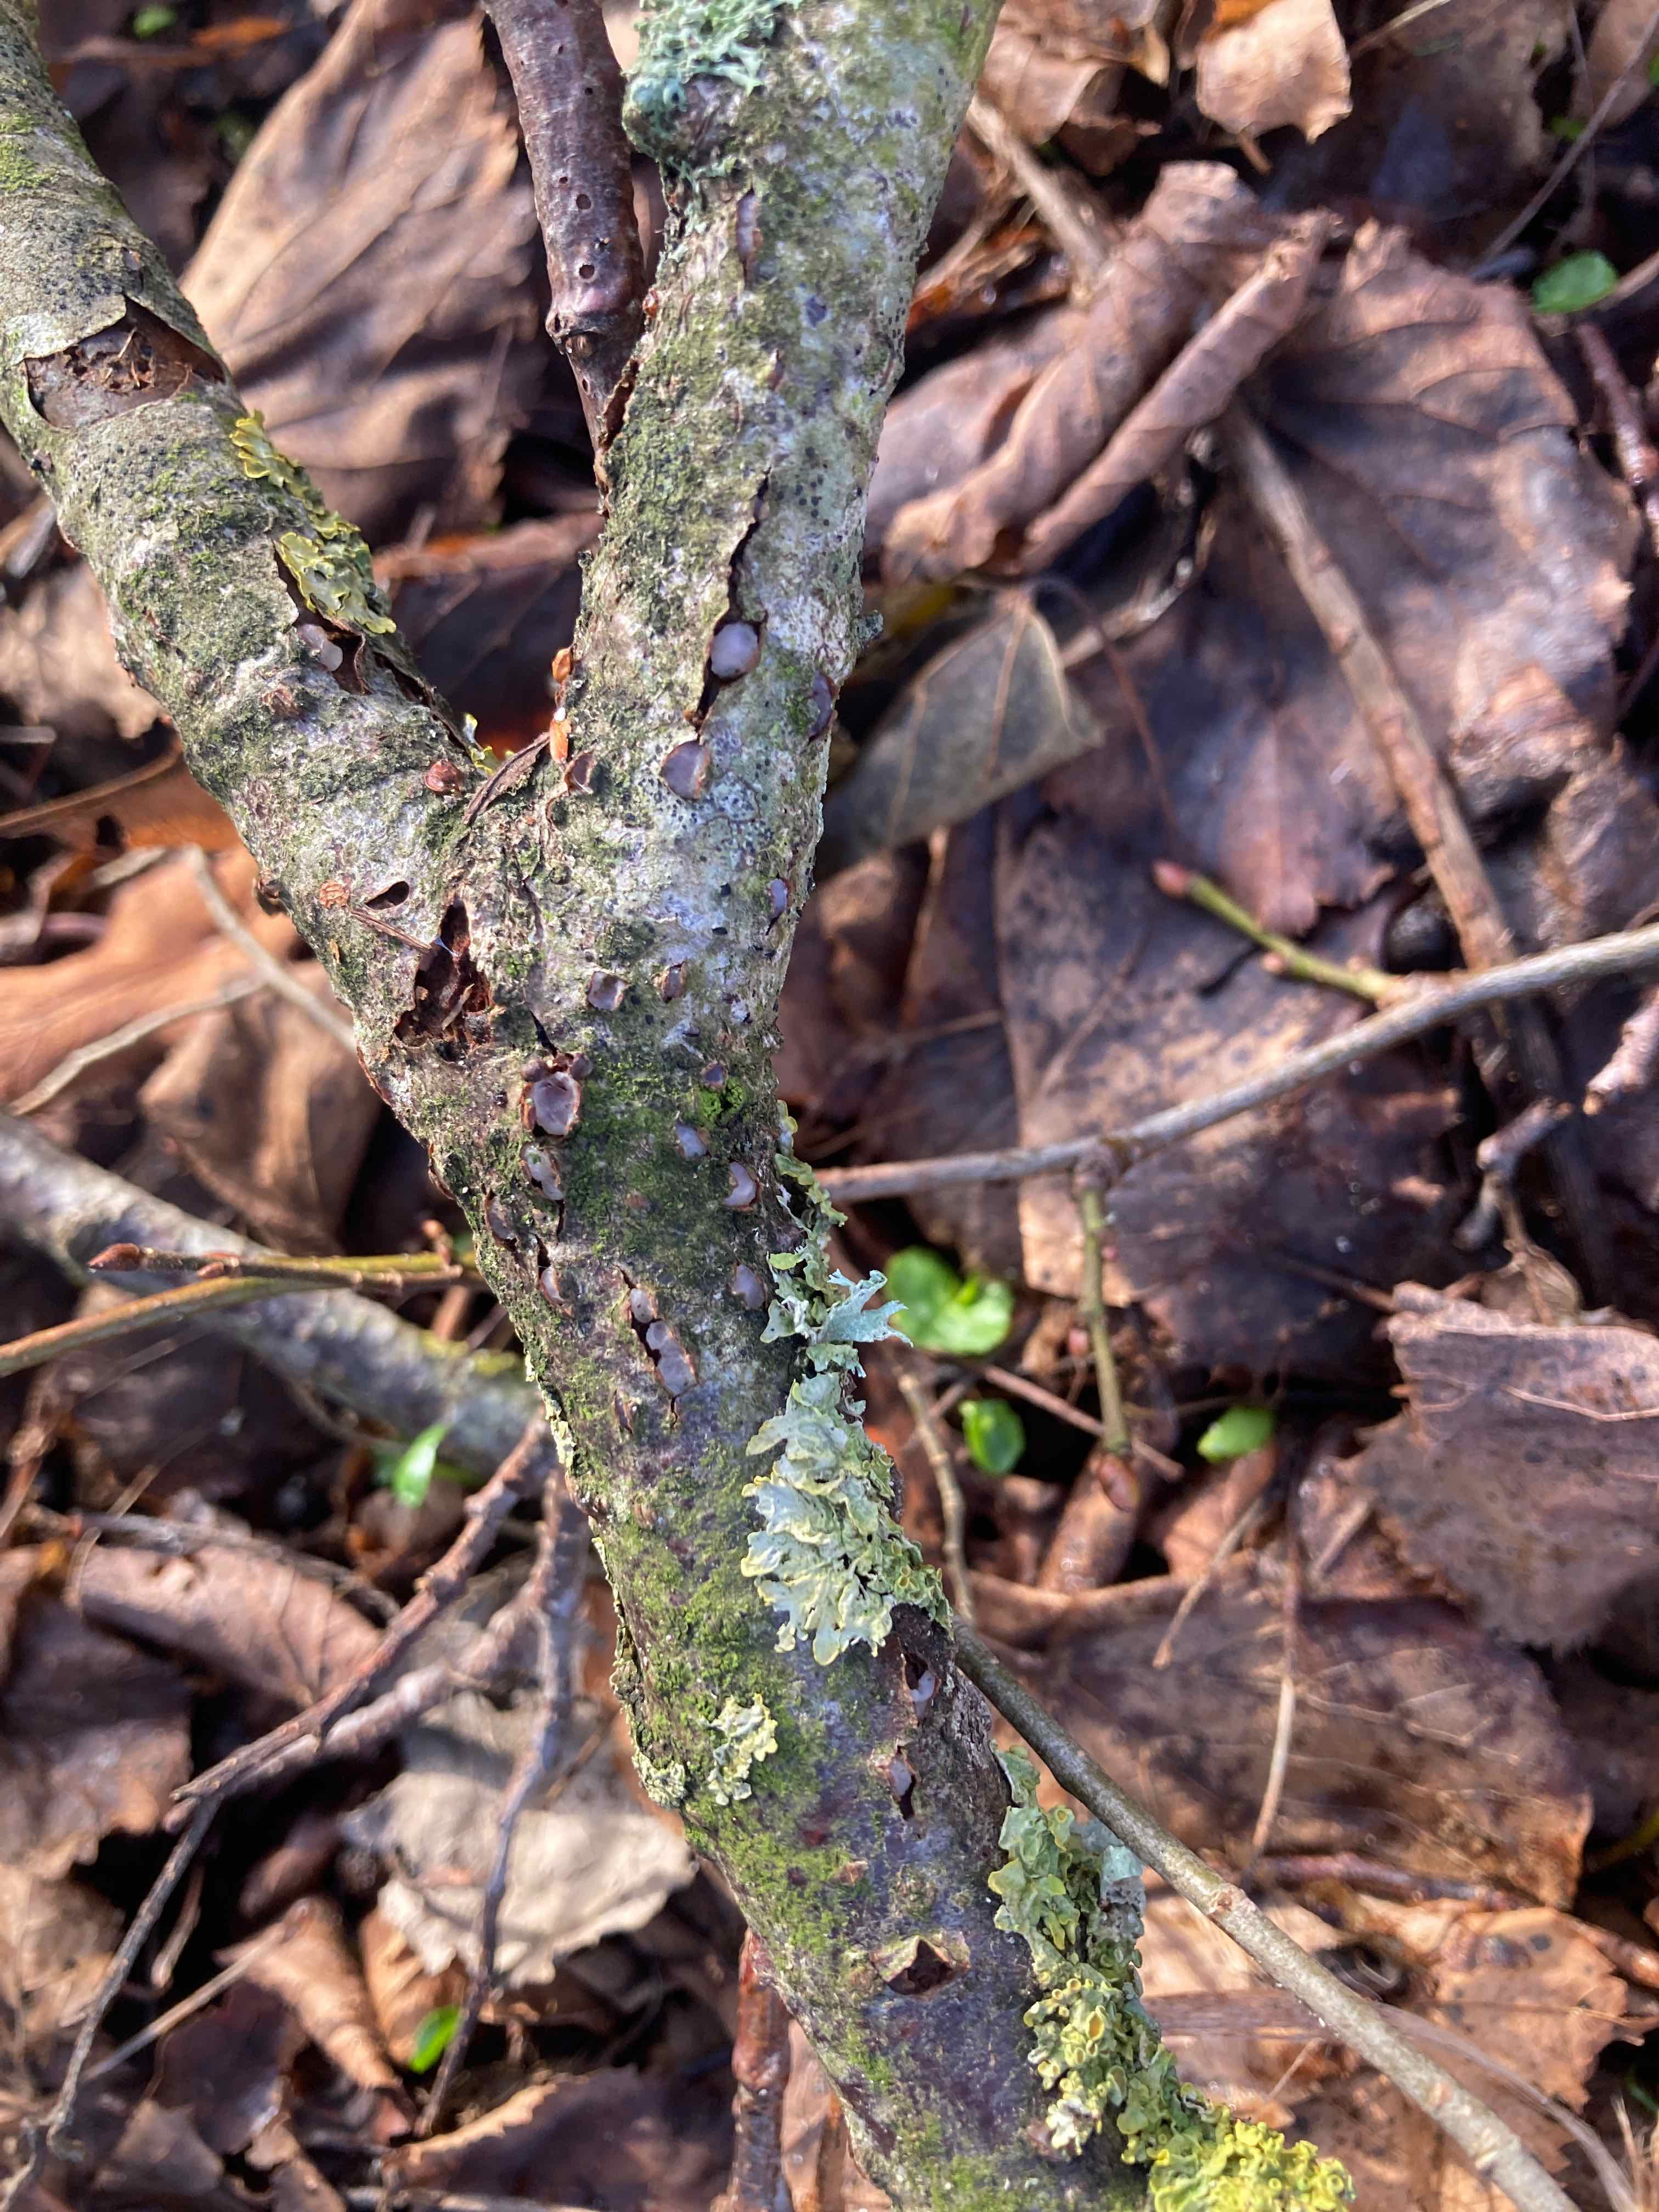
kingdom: Fungi
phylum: Basidiomycota
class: Pucciniomycetes
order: Platygloeales
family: Platygloeaceae
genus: Platygloea
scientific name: Platygloea disciformis
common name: linde-slimklat
